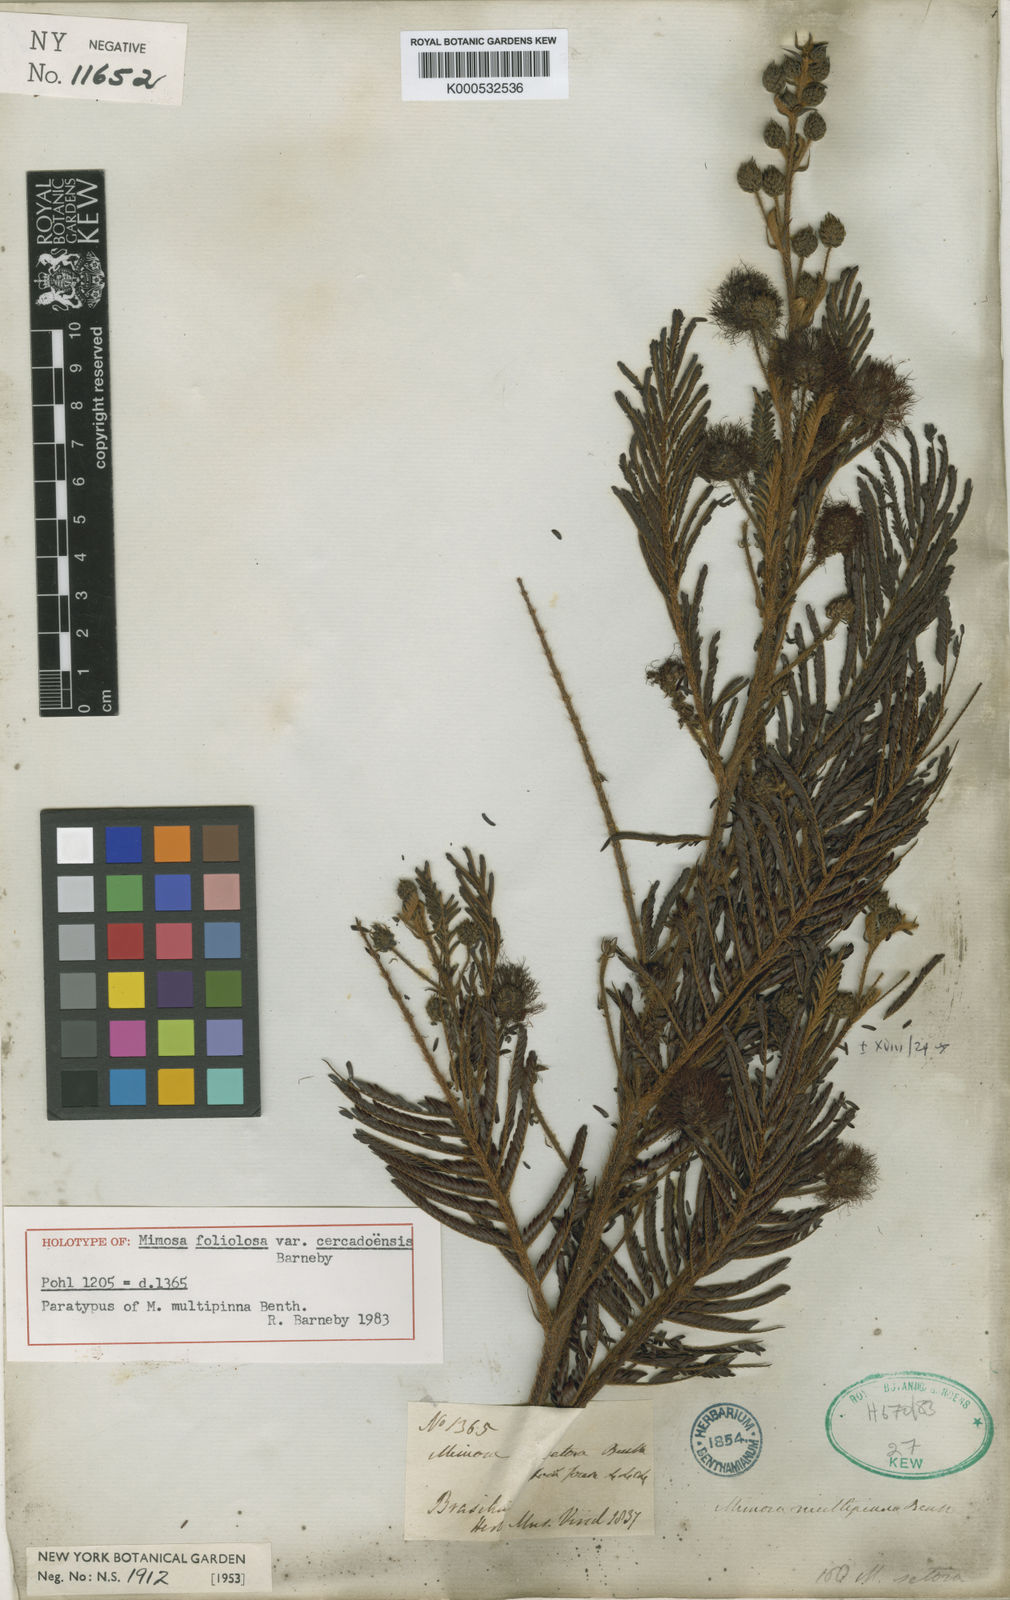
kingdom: Plantae
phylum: Tracheophyta
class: Magnoliopsida
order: Fabales
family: Fabaceae
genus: Mimosa
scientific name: Mimosa foliolosa
